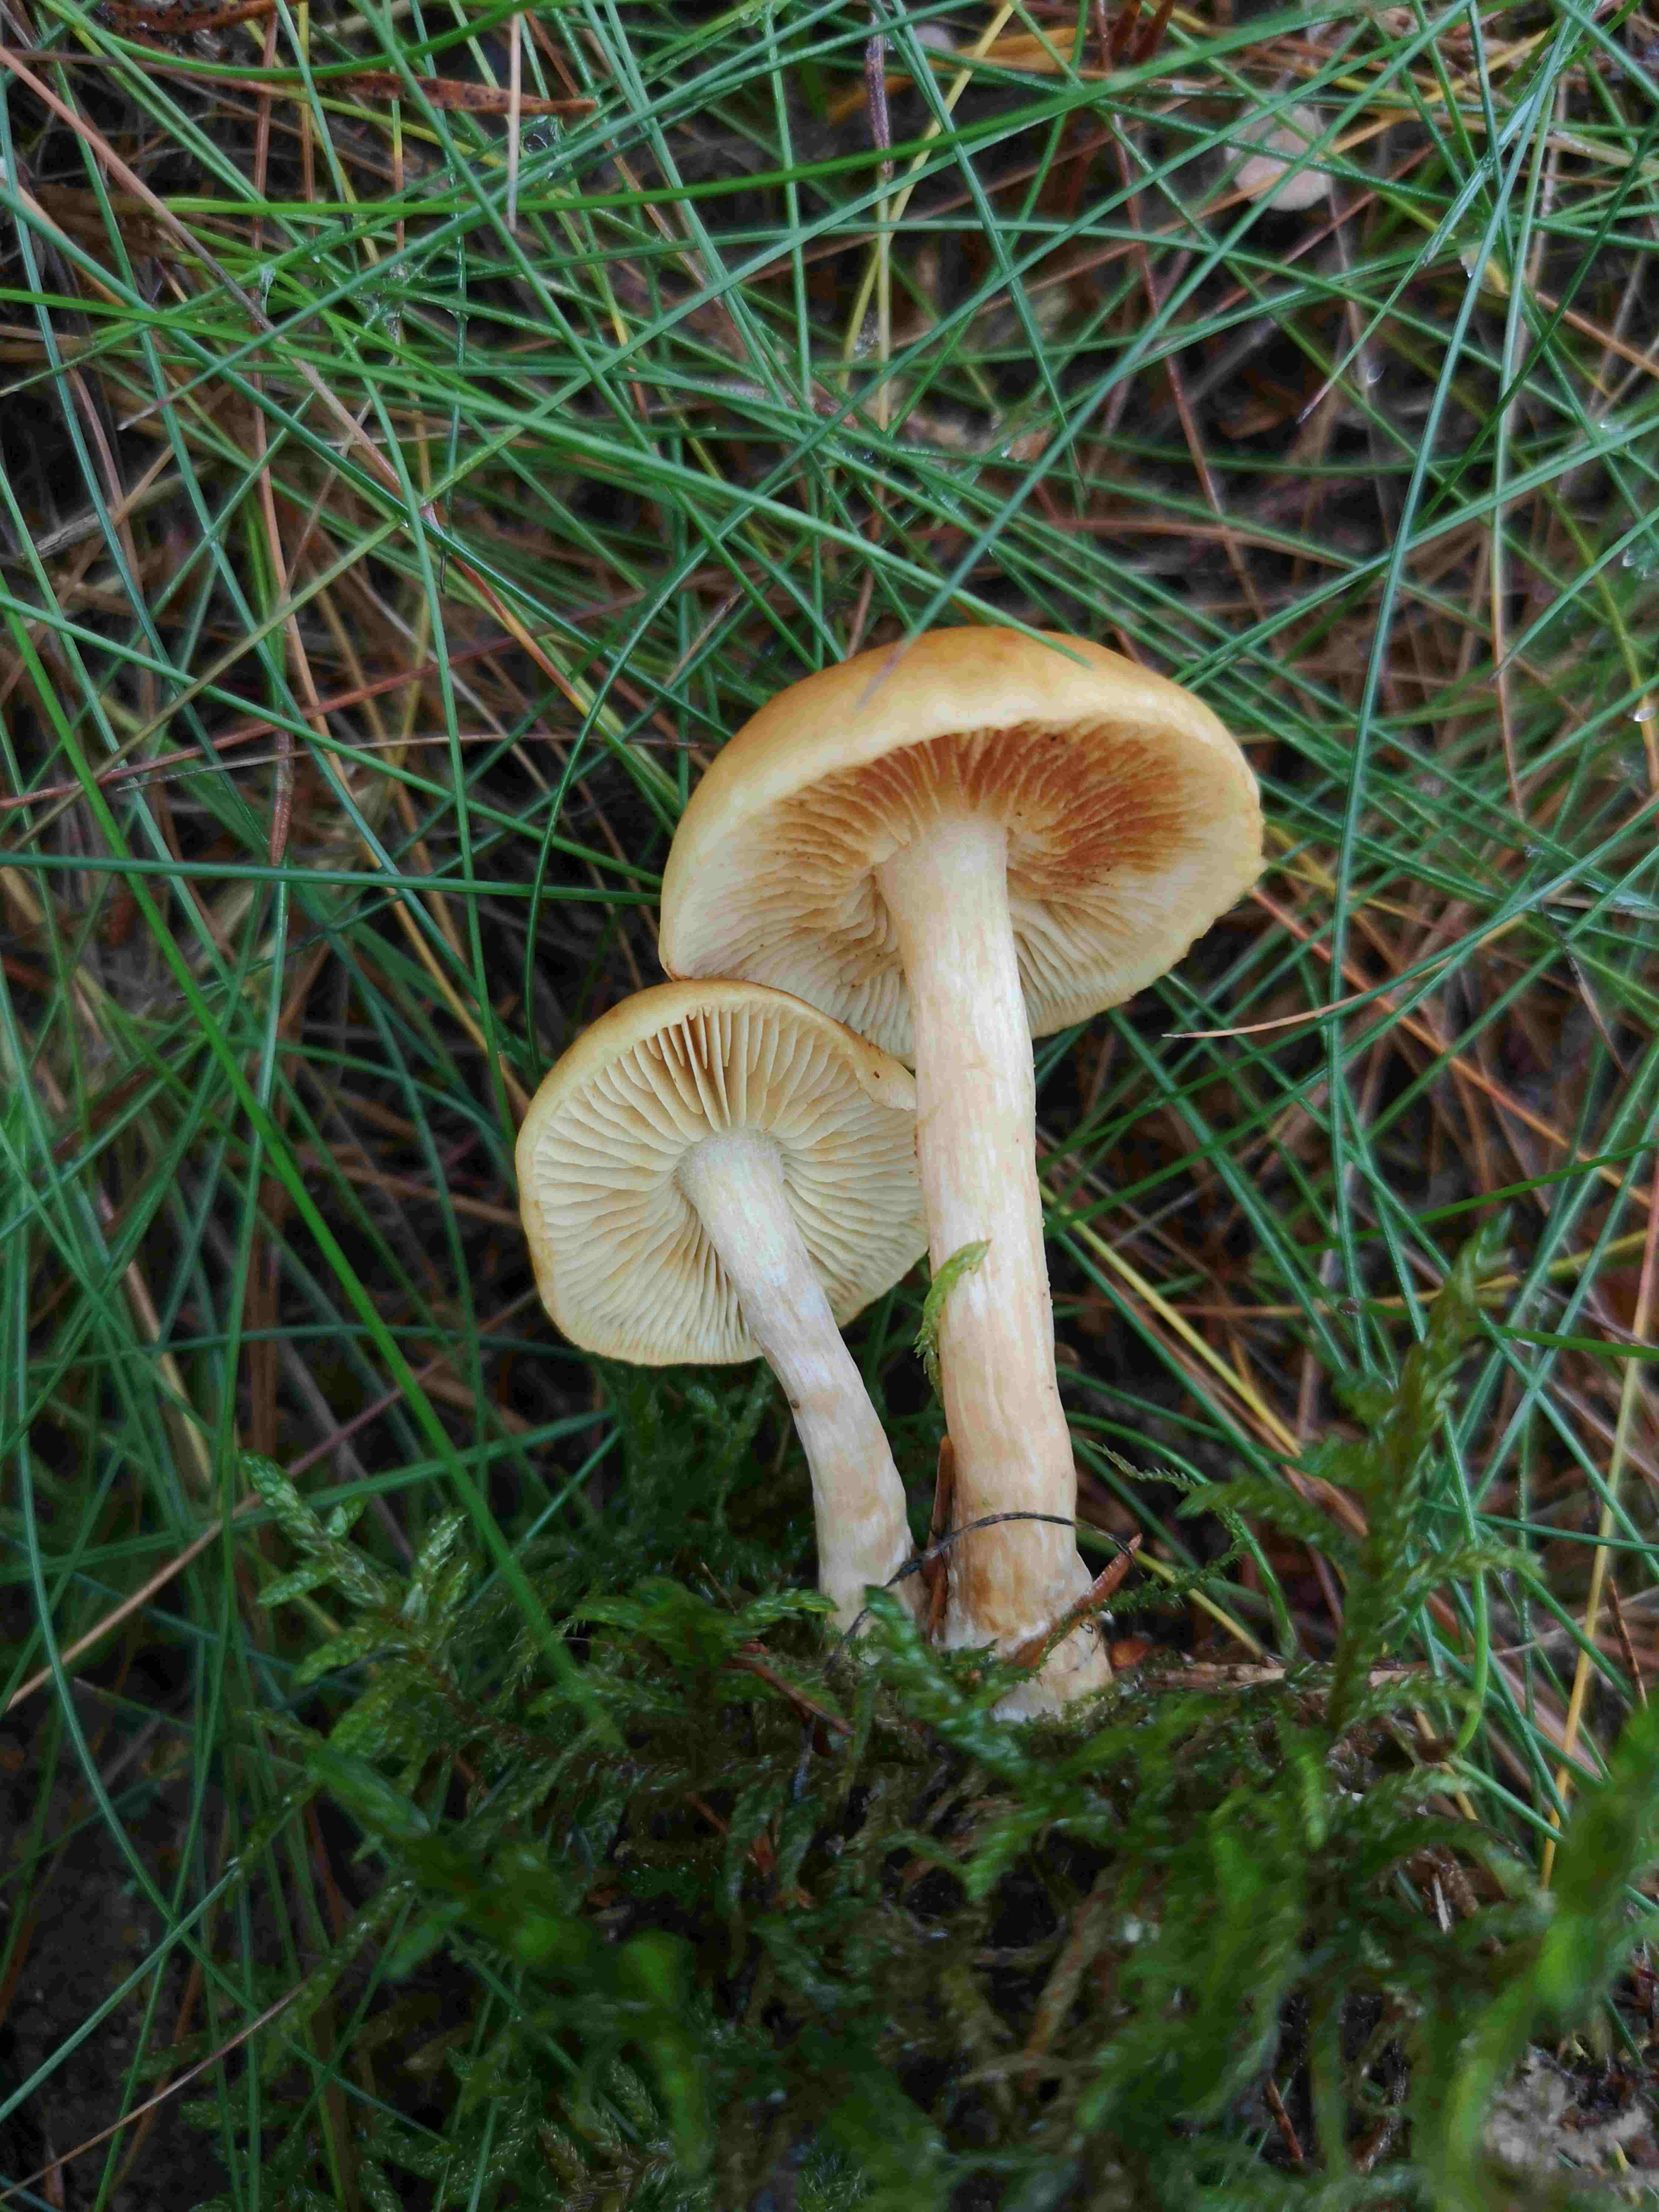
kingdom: Fungi
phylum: Basidiomycota
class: Agaricomycetes
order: Agaricales
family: Hymenogastraceae
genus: Gymnopilus
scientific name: Gymnopilus penetrans
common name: plettet flammehat
